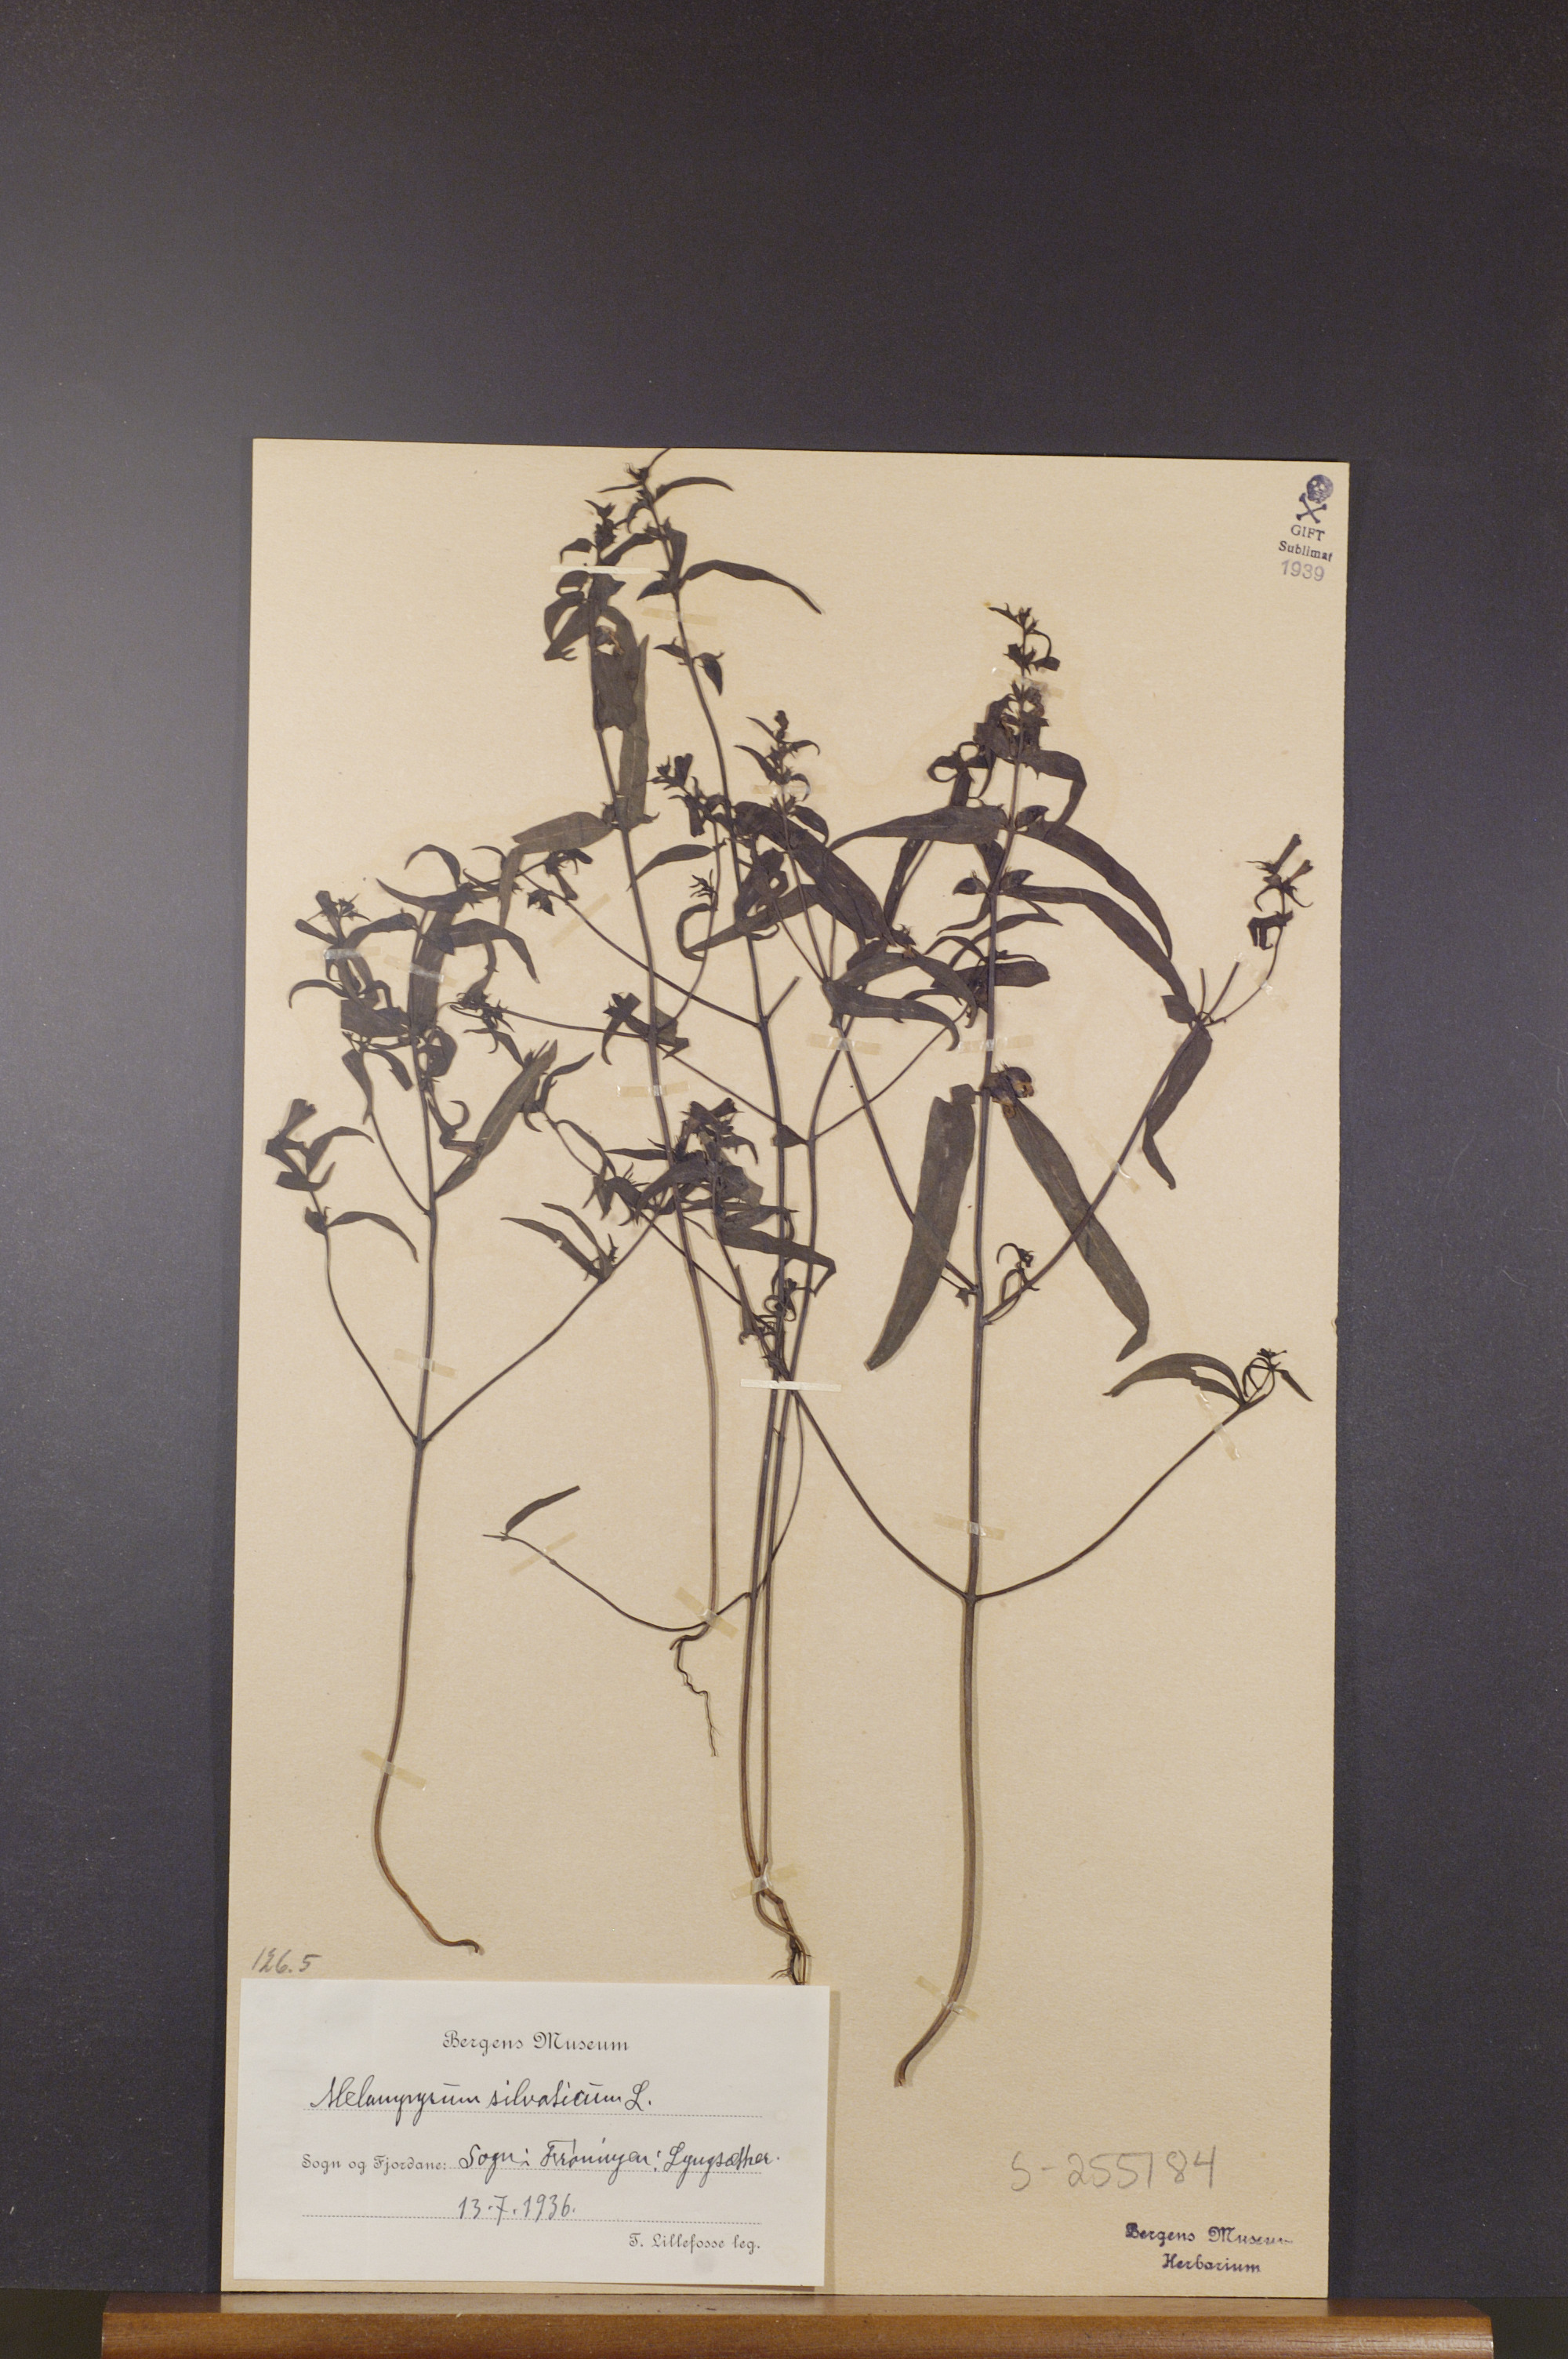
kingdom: Plantae
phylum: Tracheophyta
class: Magnoliopsida
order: Lamiales
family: Orobanchaceae
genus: Melampyrum
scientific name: Melampyrum sylvaticum
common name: Small cow-wheat
